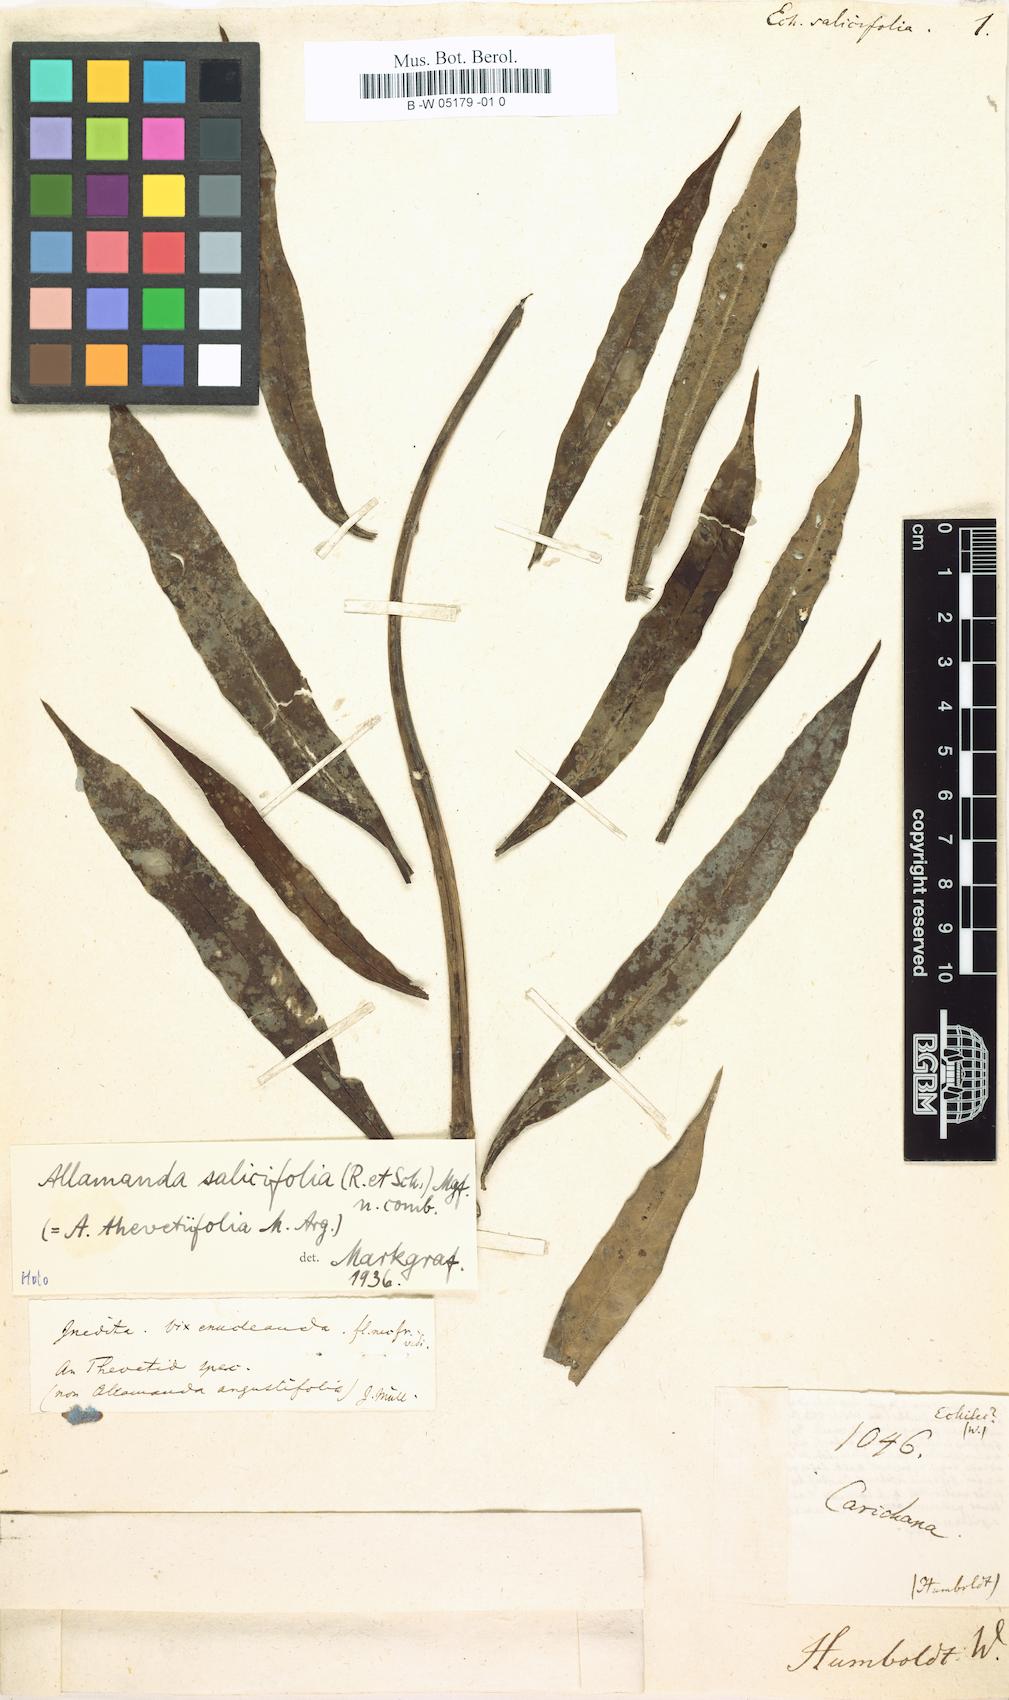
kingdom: Plantae
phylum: Tracheophyta
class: Magnoliopsida
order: Gentianales
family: Apocynaceae
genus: Echites
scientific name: Echites salicifolius
